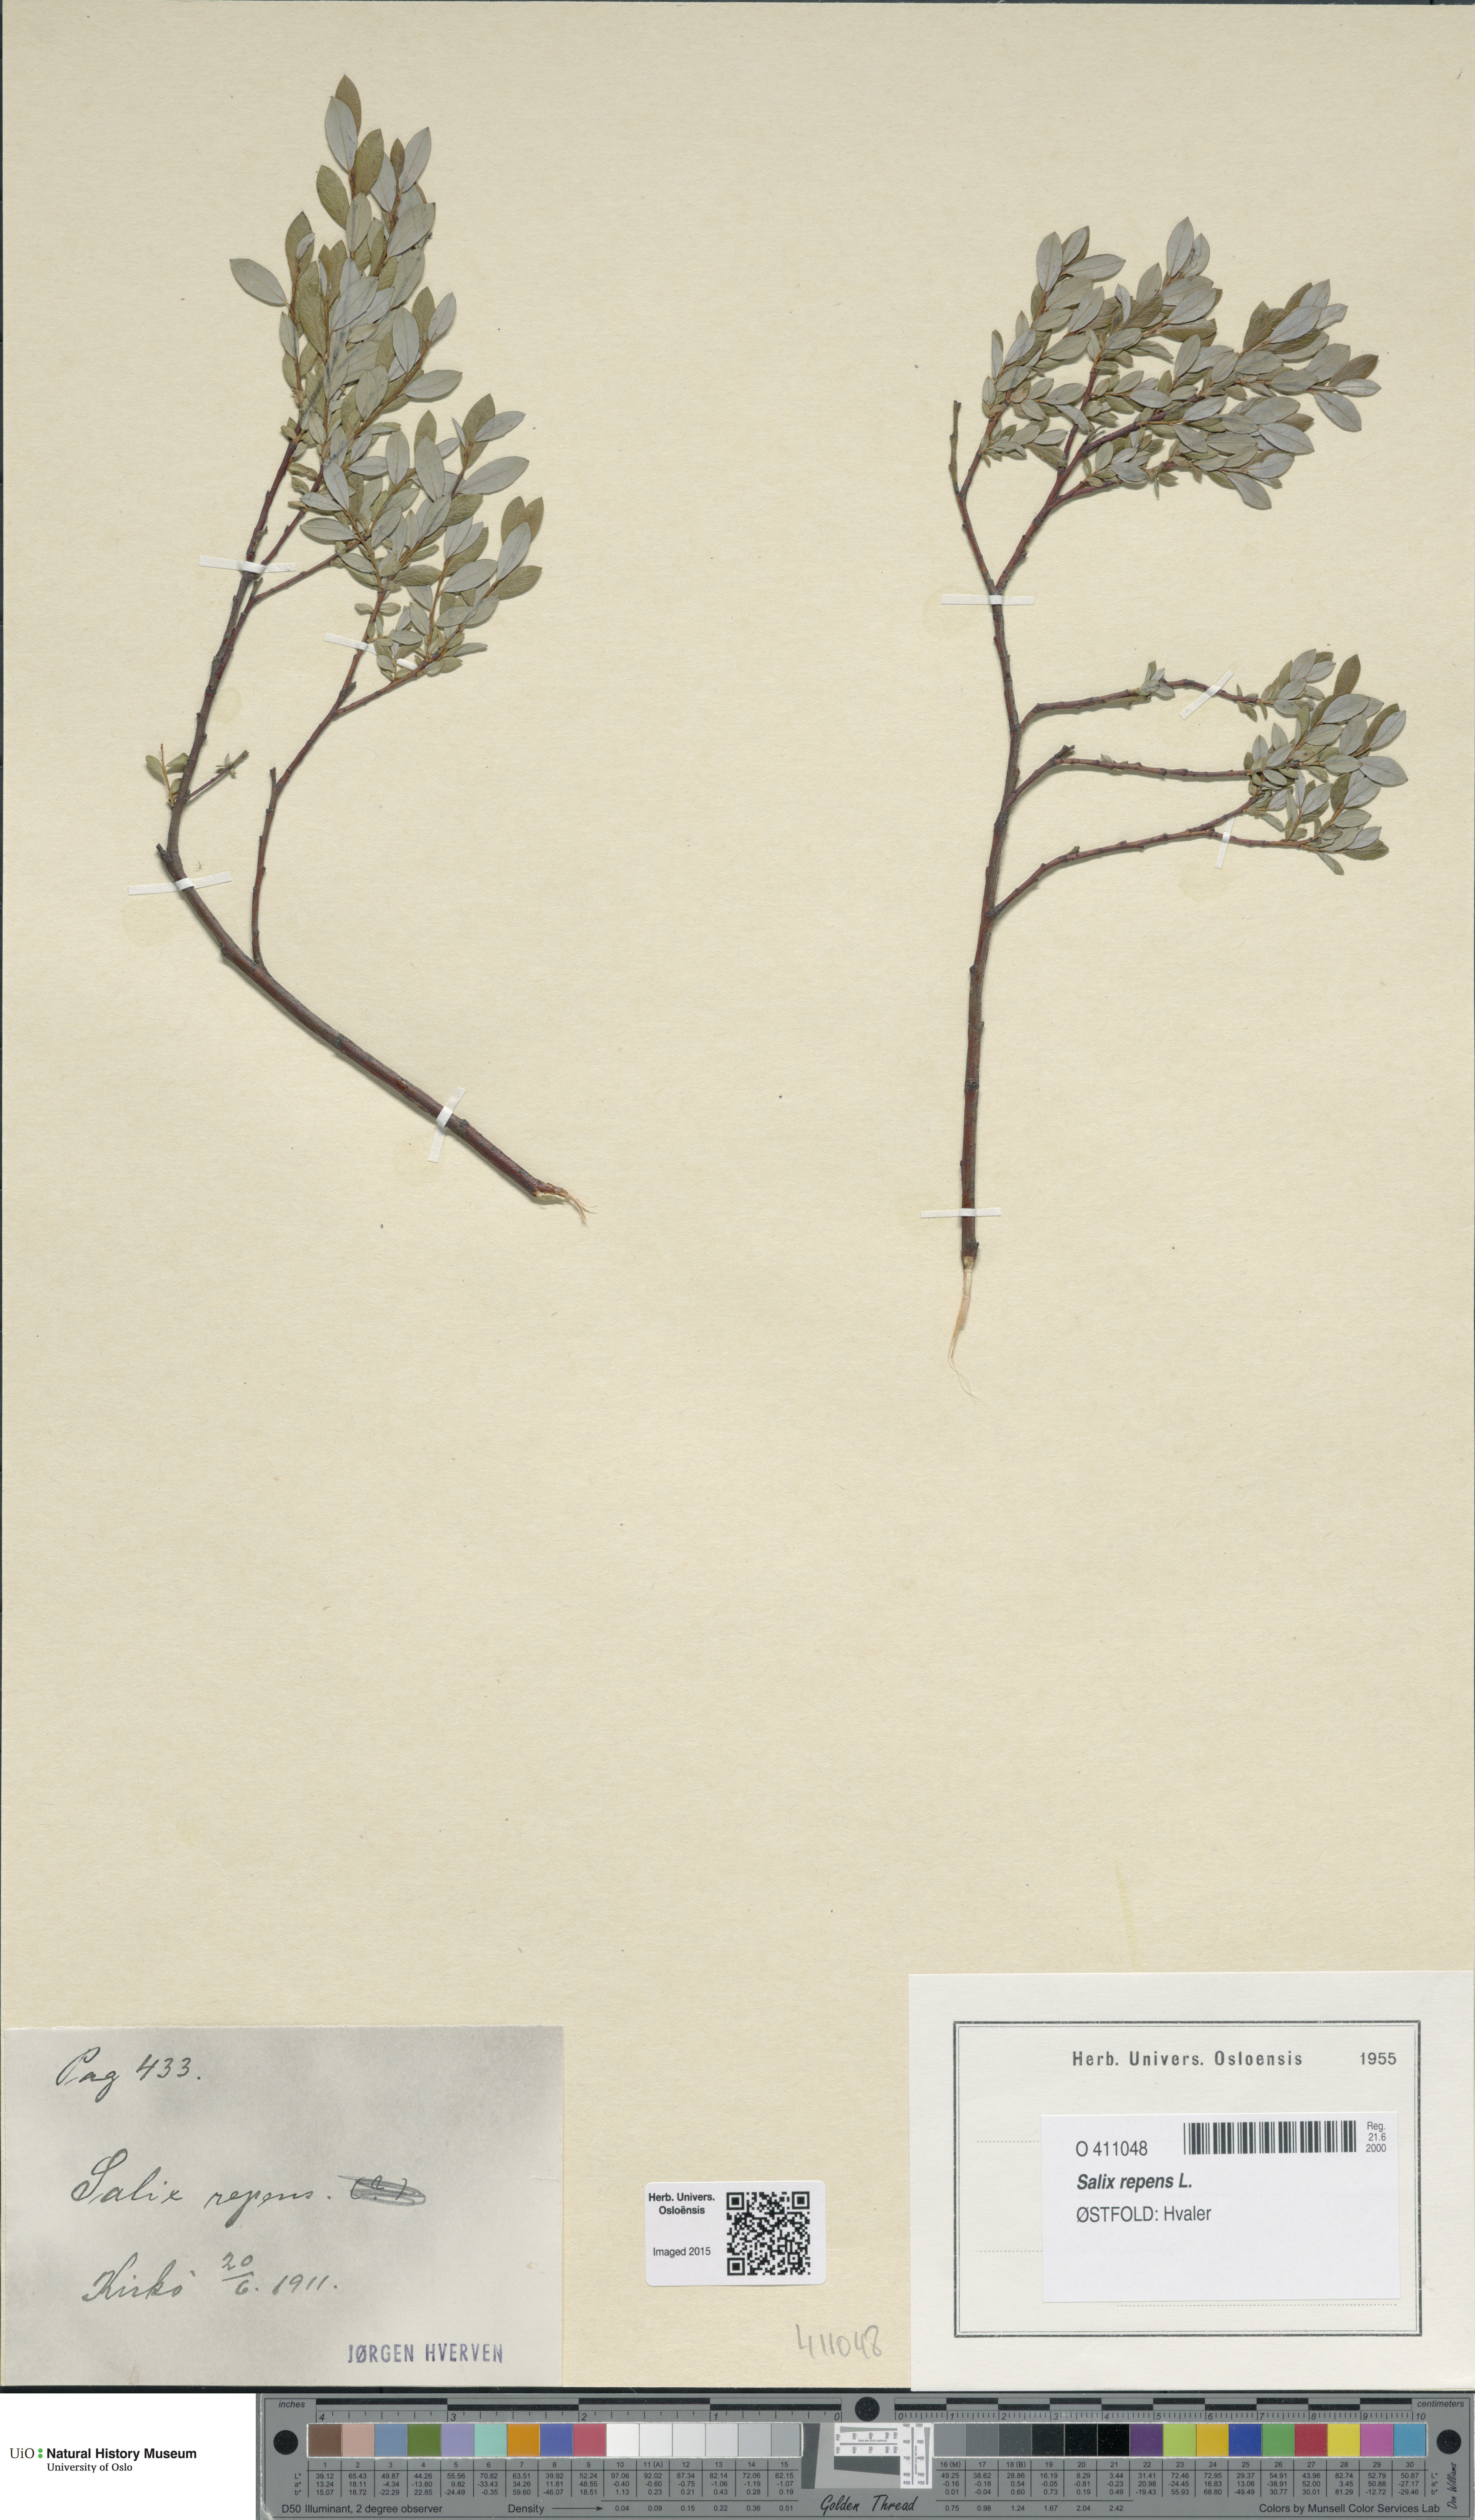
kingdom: Plantae
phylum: Tracheophyta
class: Magnoliopsida
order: Malpighiales
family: Salicaceae
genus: Salix
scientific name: Salix repens
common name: Creeping willow
